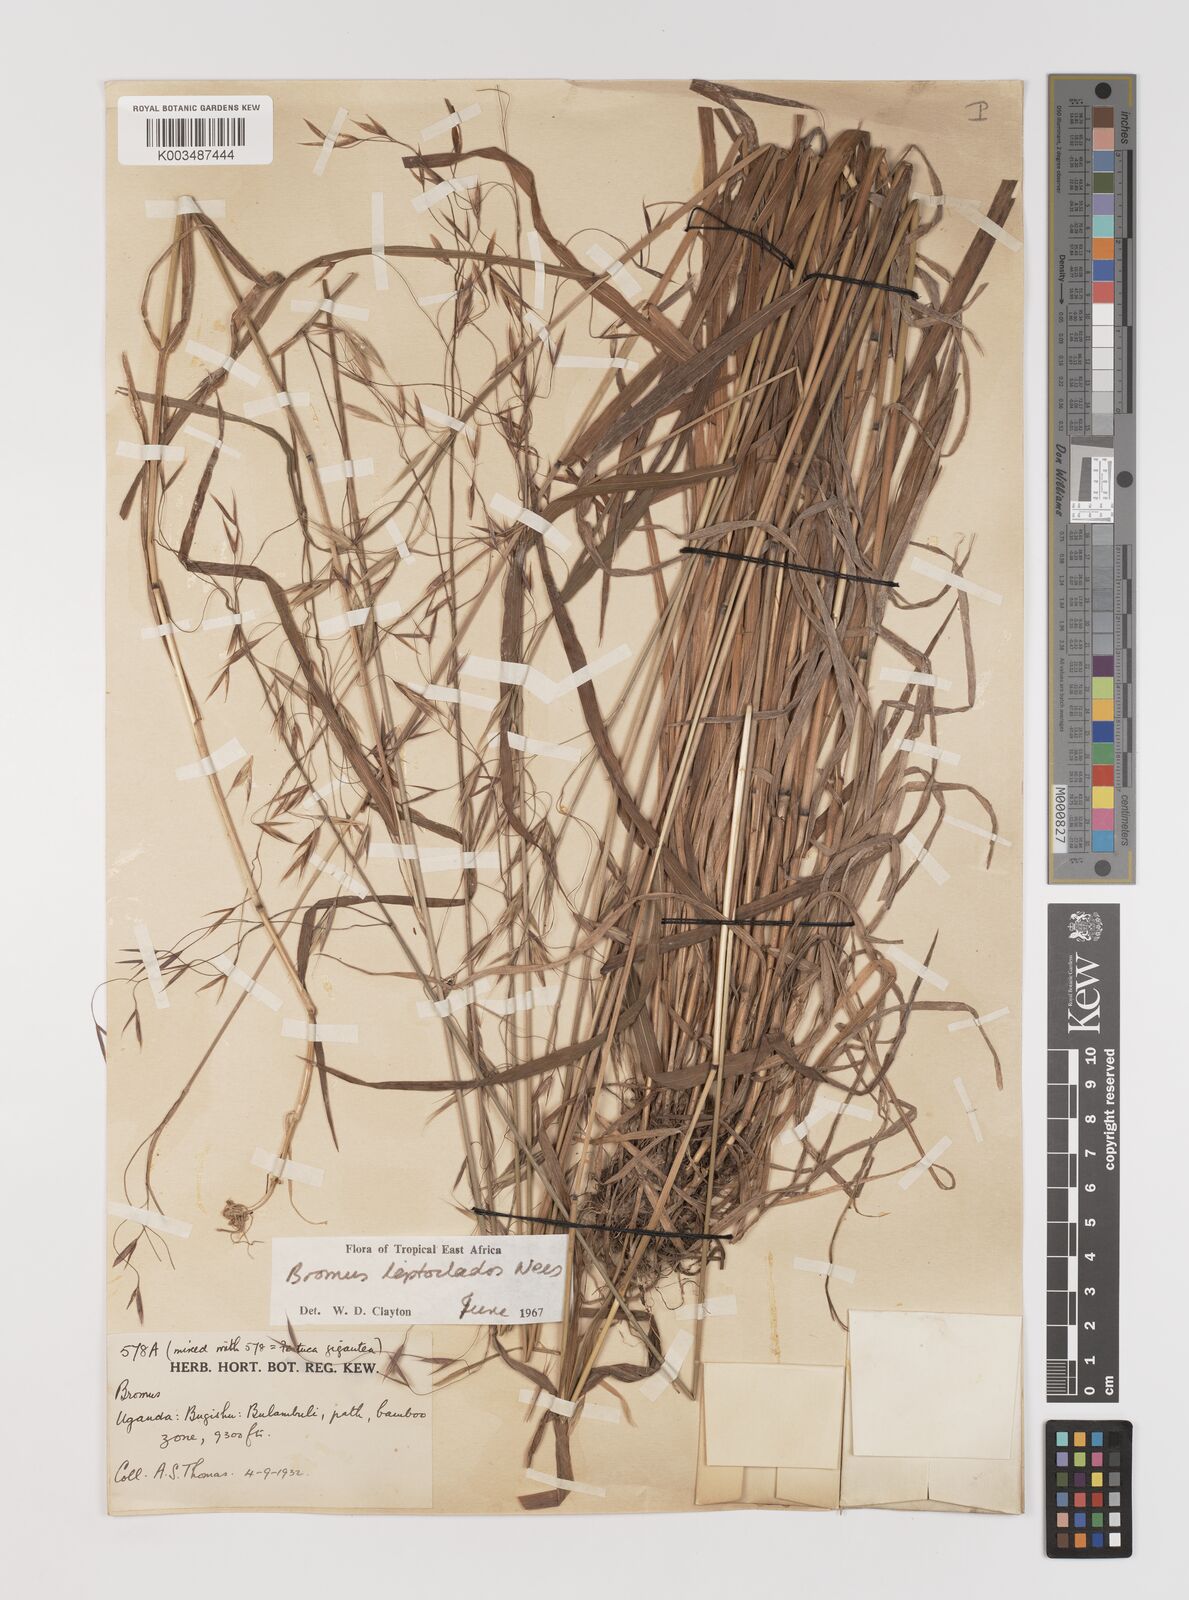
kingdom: Plantae
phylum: Tracheophyta
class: Liliopsida
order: Poales
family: Poaceae
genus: Bromus
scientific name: Bromus leptoclados
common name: Mountain bromegrass
